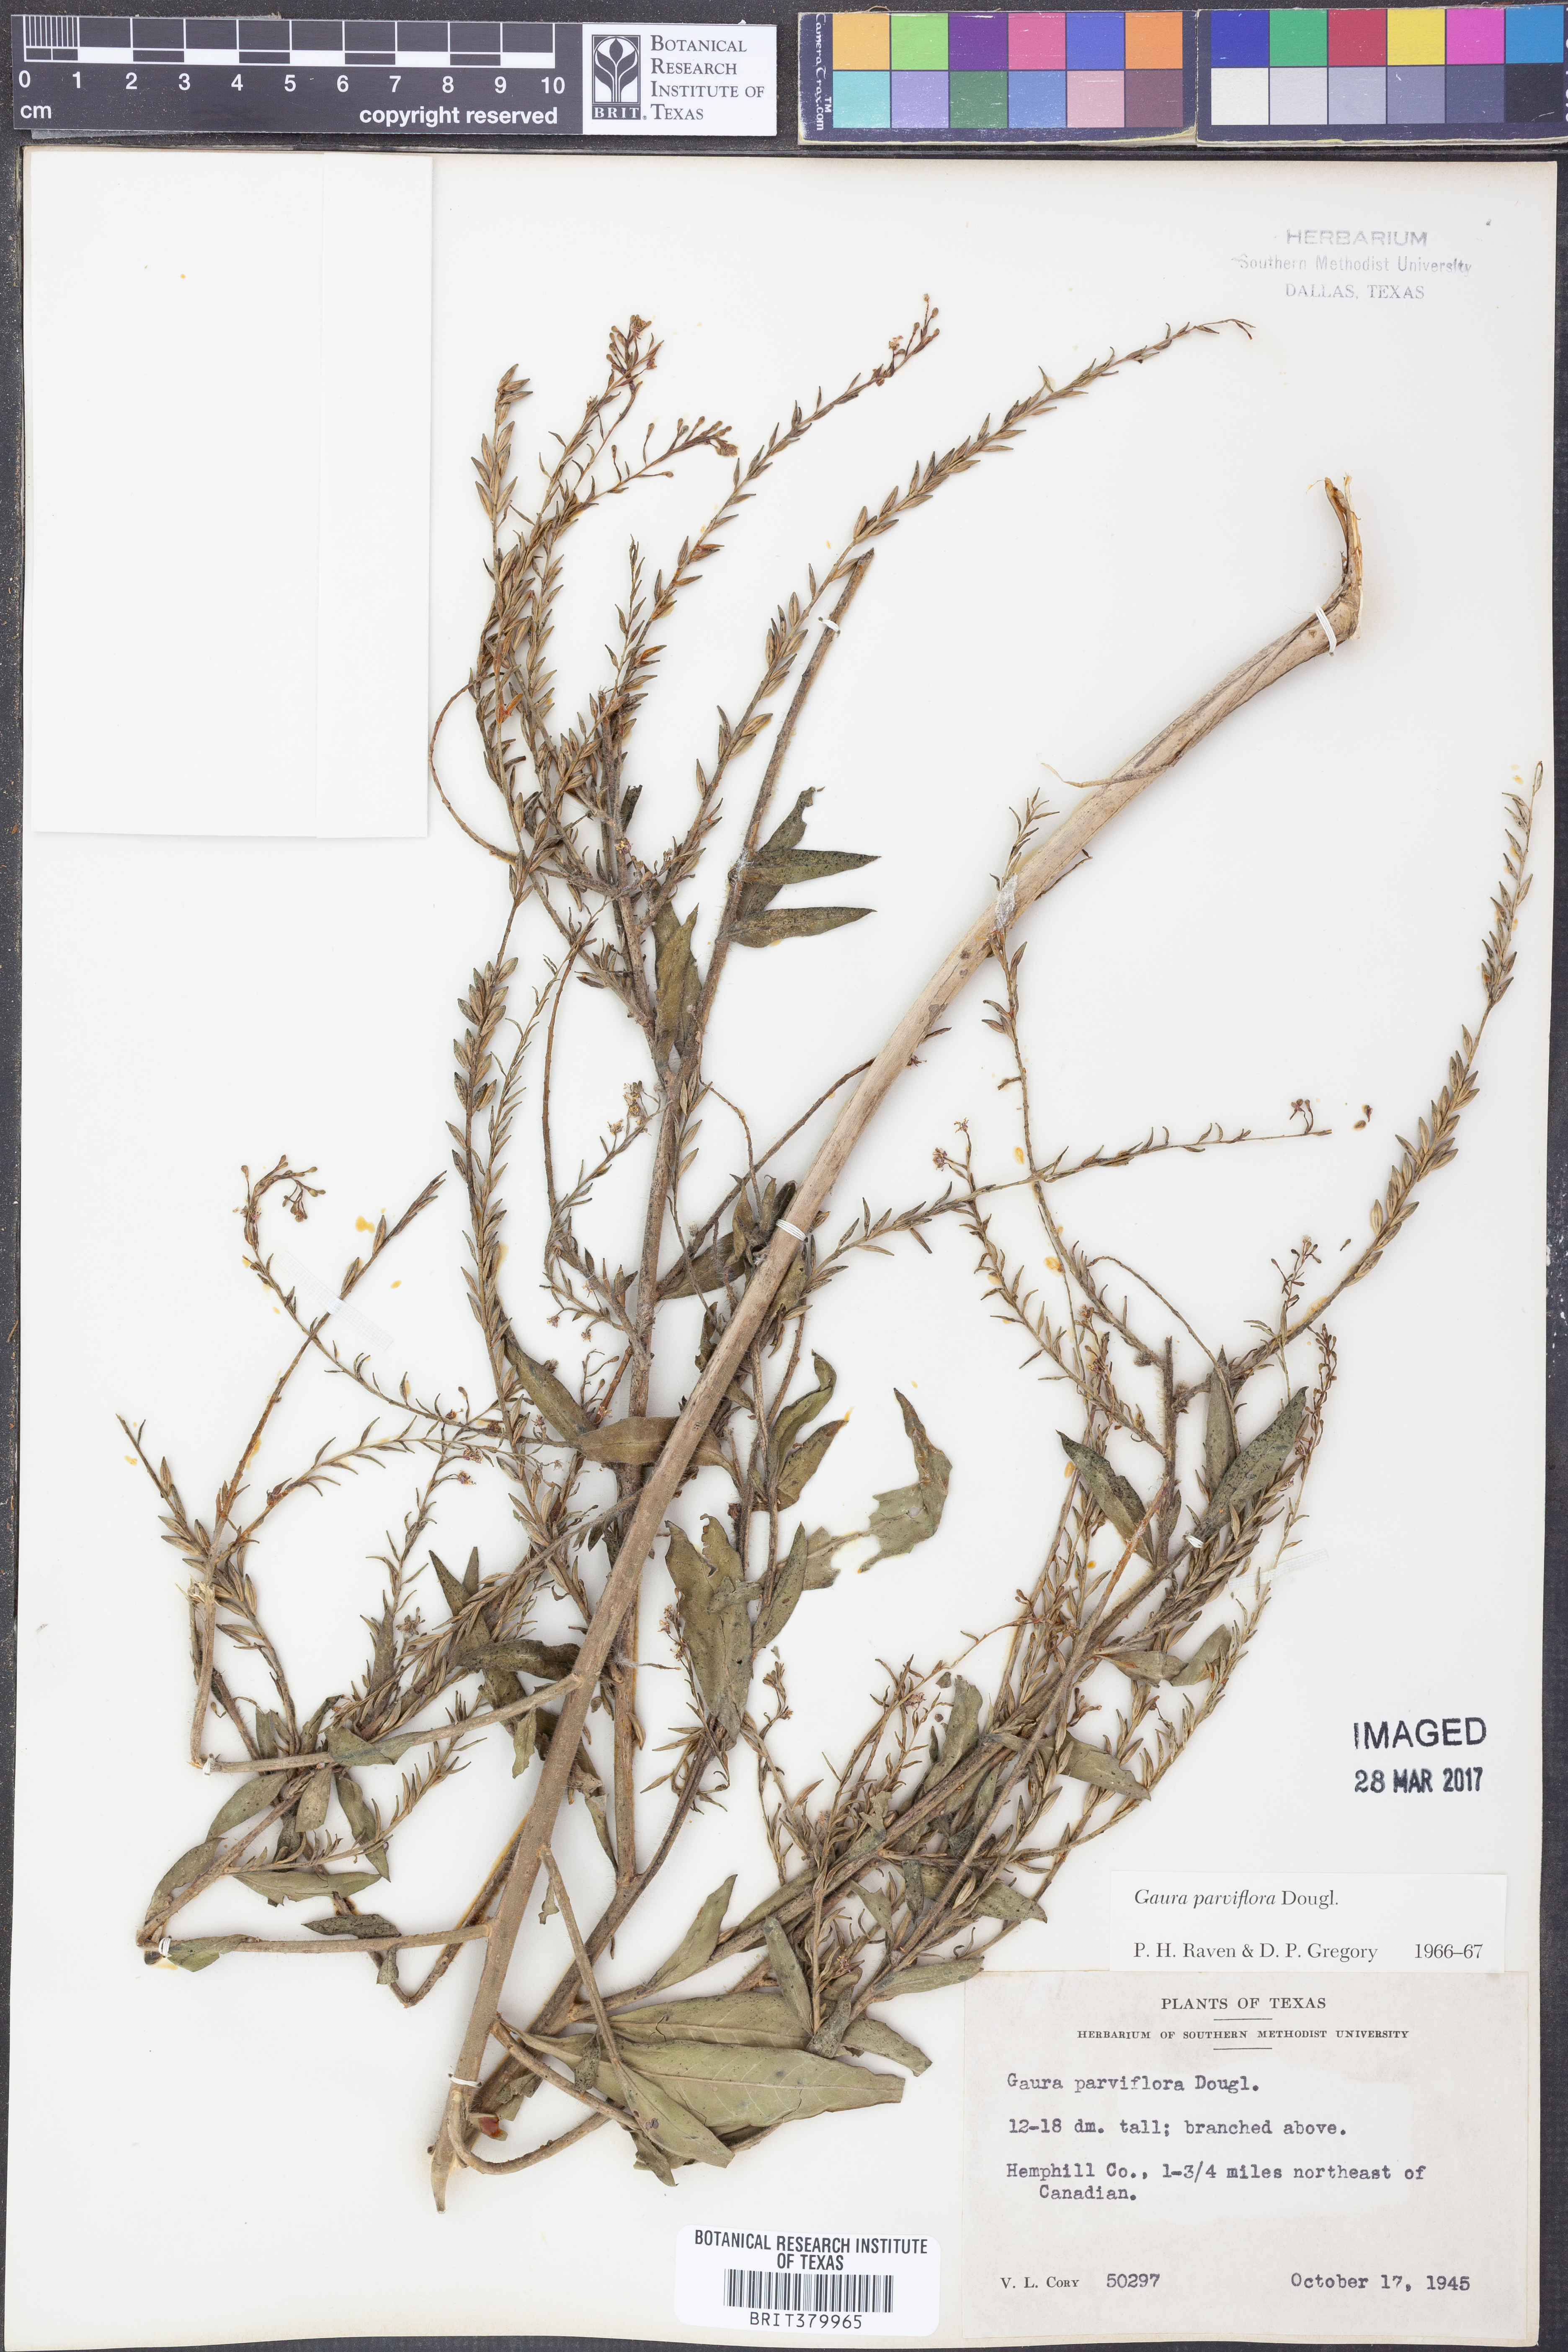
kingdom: Plantae
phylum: Tracheophyta
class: Magnoliopsida
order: Myrtales
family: Onagraceae
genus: Oenothera
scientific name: Oenothera curtiflora
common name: Velvetweed
